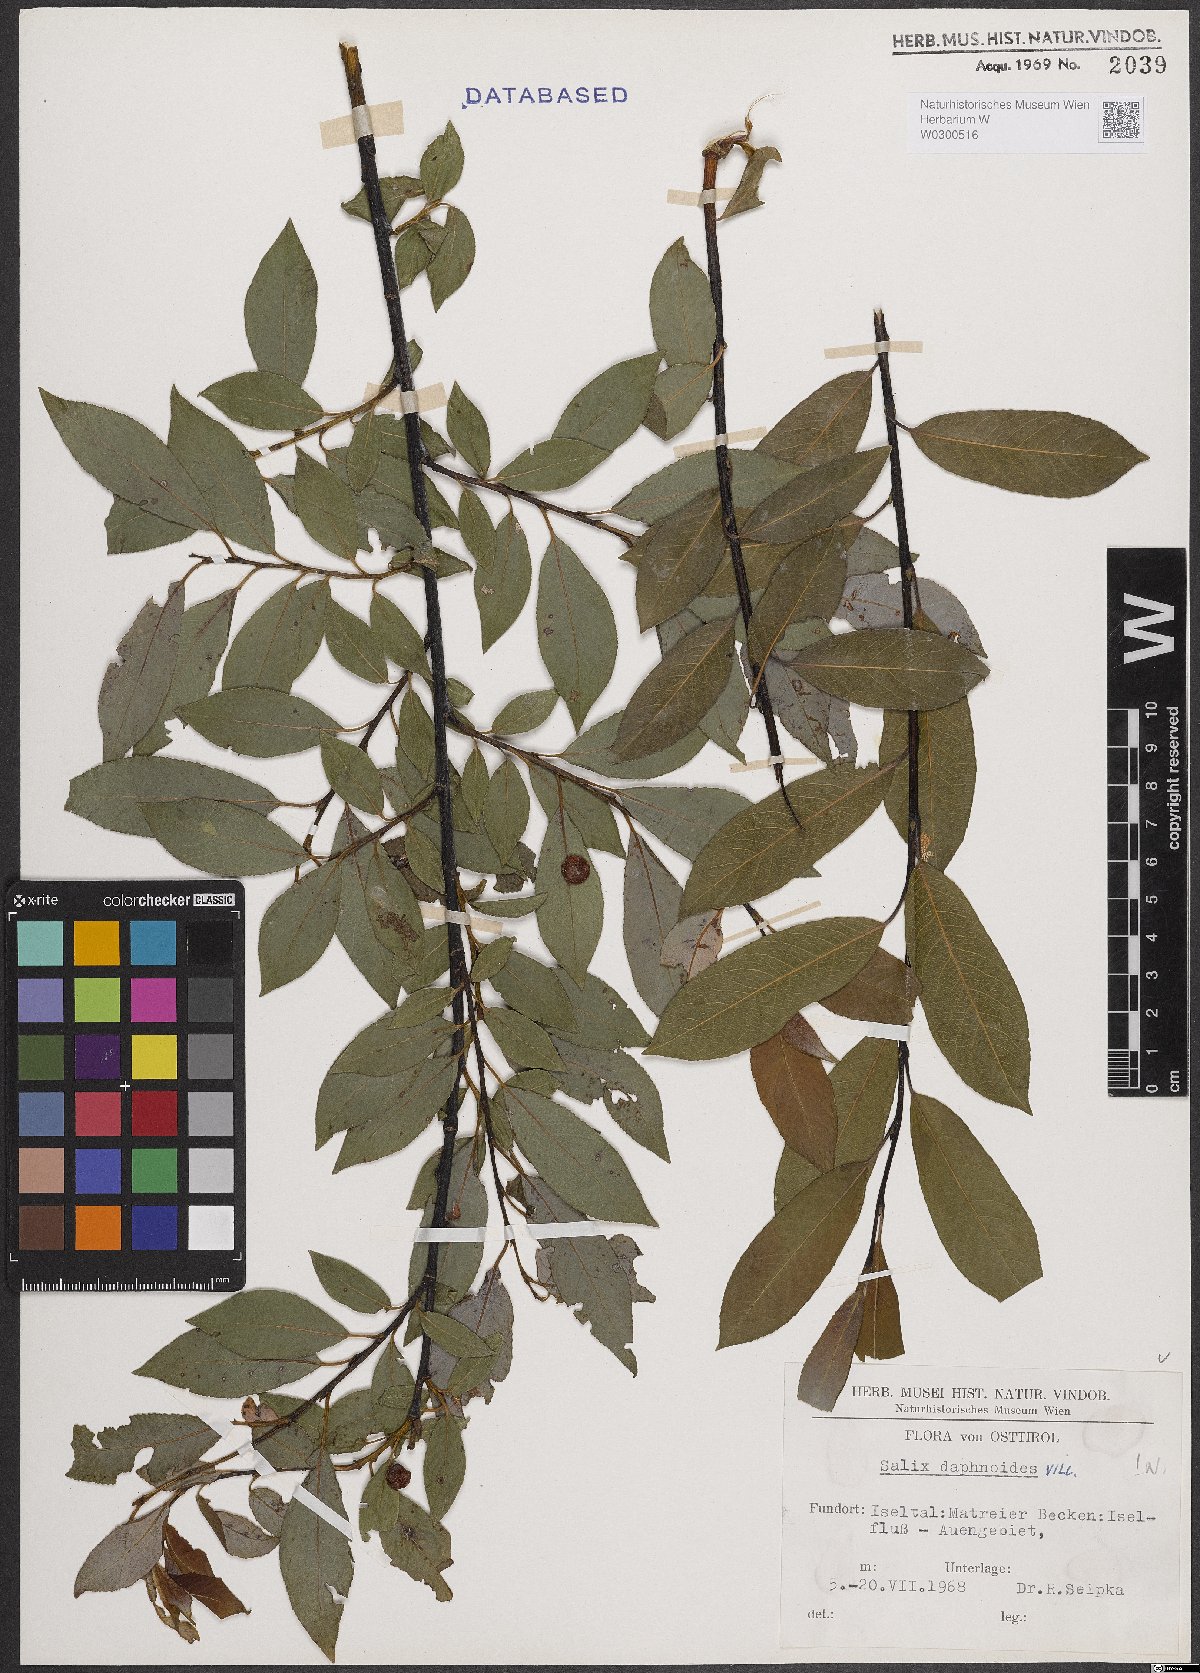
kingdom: Plantae
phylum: Tracheophyta
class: Magnoliopsida
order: Malpighiales
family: Salicaceae
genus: Salix
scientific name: Salix daphnoides
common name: European violet-willow
